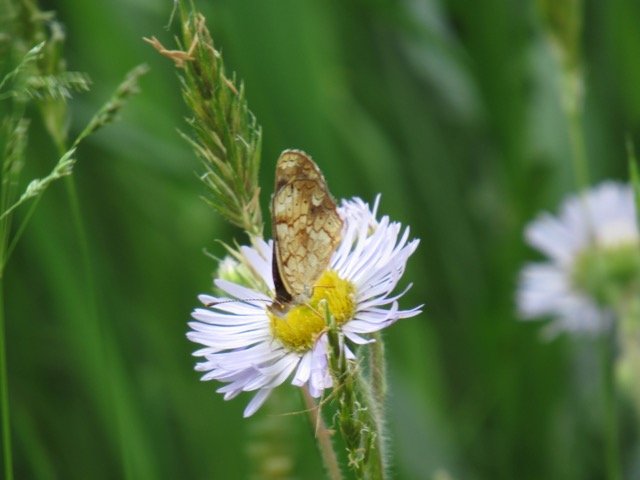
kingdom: Animalia
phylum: Arthropoda
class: Insecta
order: Lepidoptera
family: Nymphalidae
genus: Phyciodes
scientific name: Phyciodes tharos
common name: Pearl Crescent
